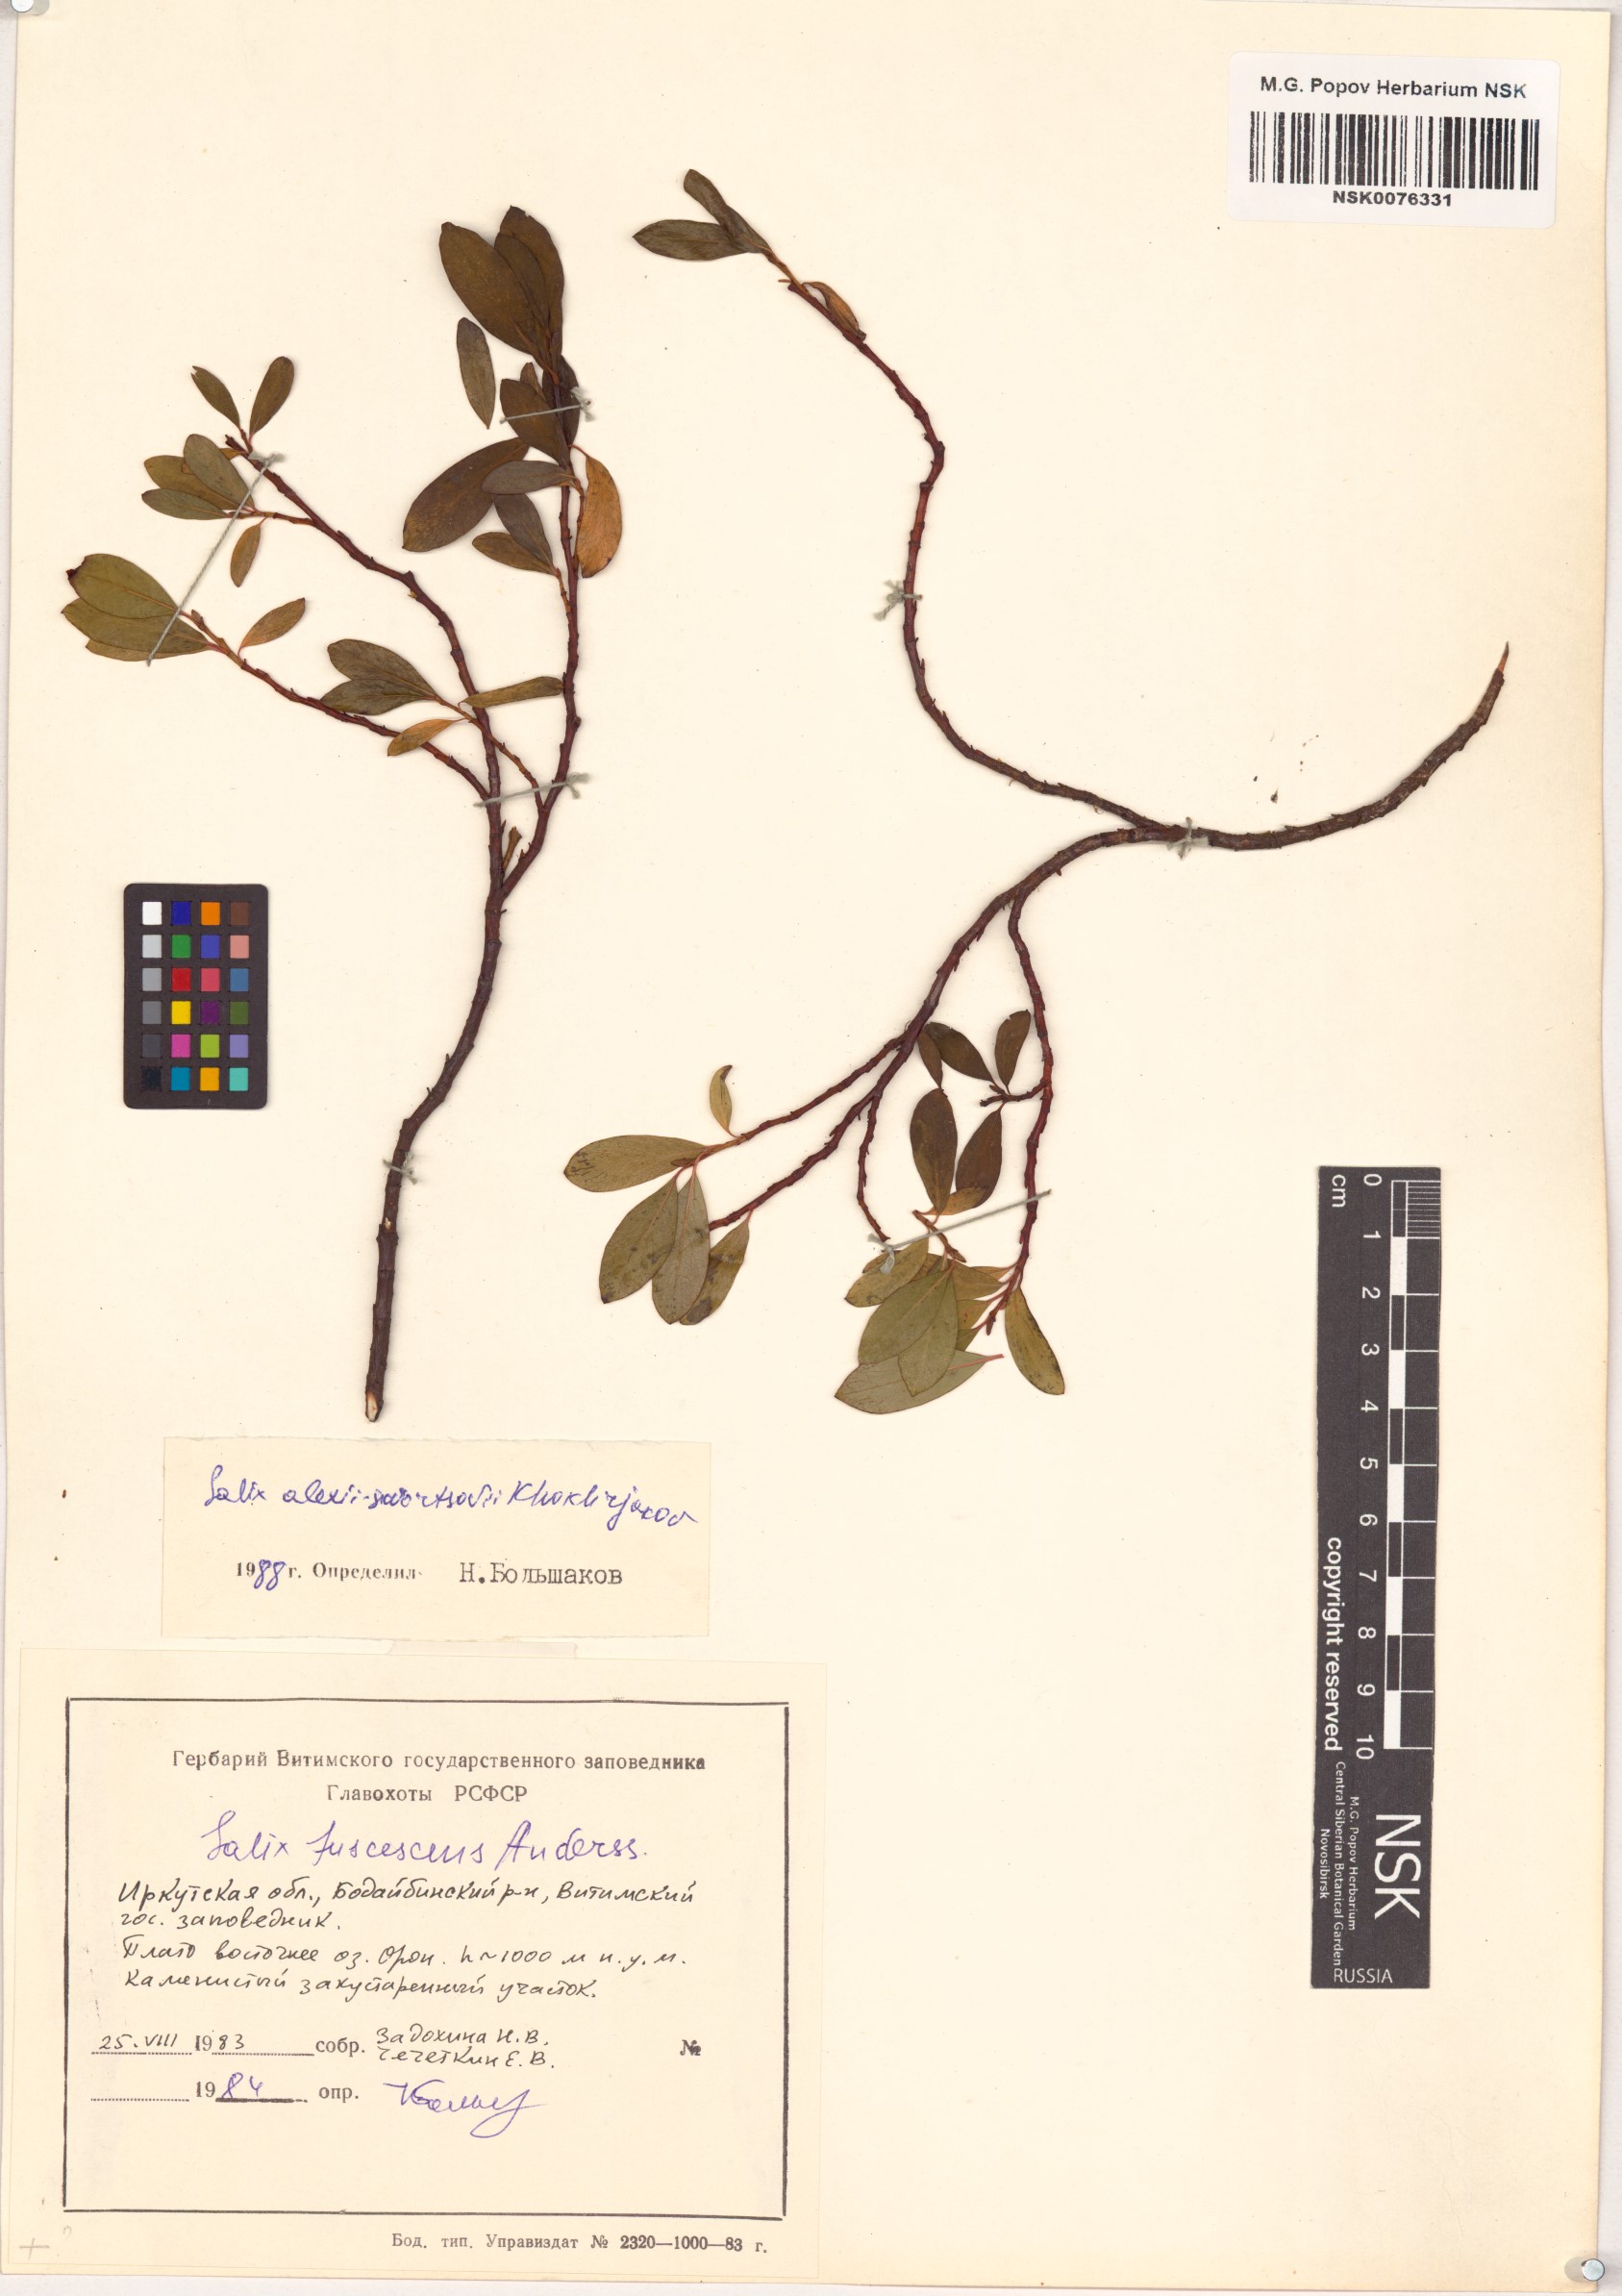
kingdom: Plantae
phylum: Tracheophyta
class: Magnoliopsida
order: Malpighiales
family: Salicaceae
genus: Salix
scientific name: Salix alexii-skvortzovii
